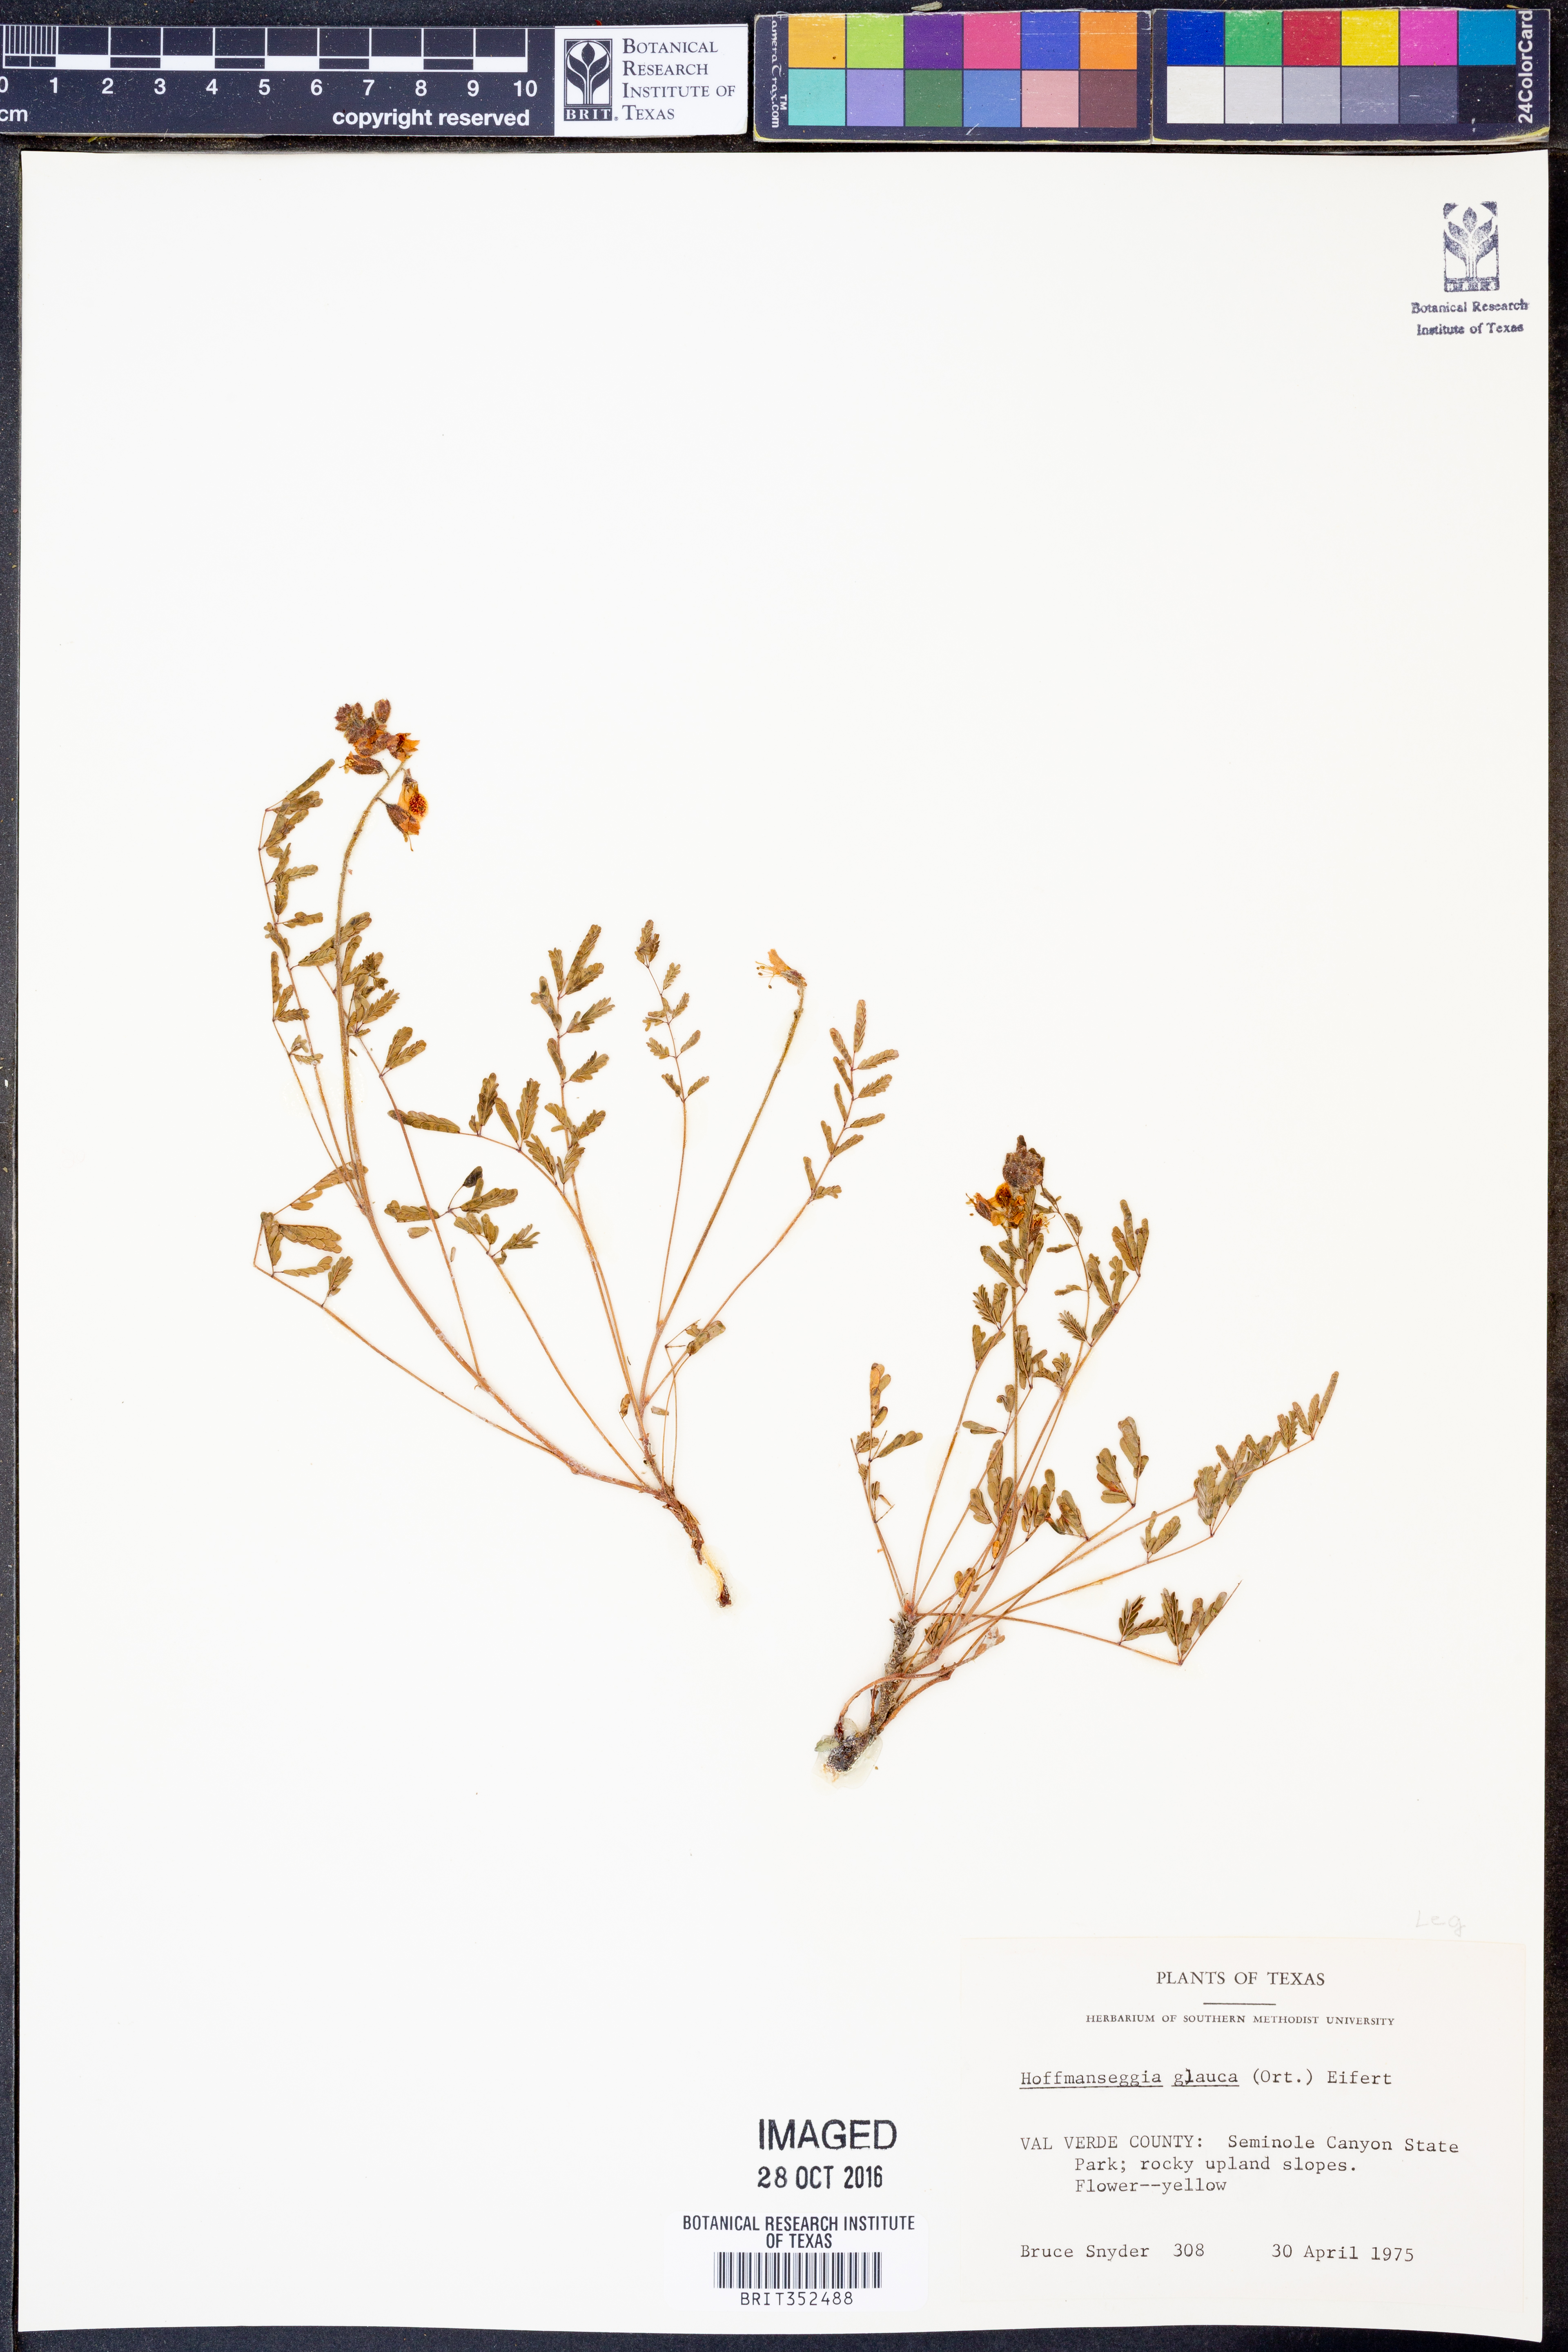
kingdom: Plantae
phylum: Tracheophyta
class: Magnoliopsida
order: Fabales
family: Fabaceae
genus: Hoffmannseggia
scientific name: Hoffmannseggia glauca
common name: Pignut
